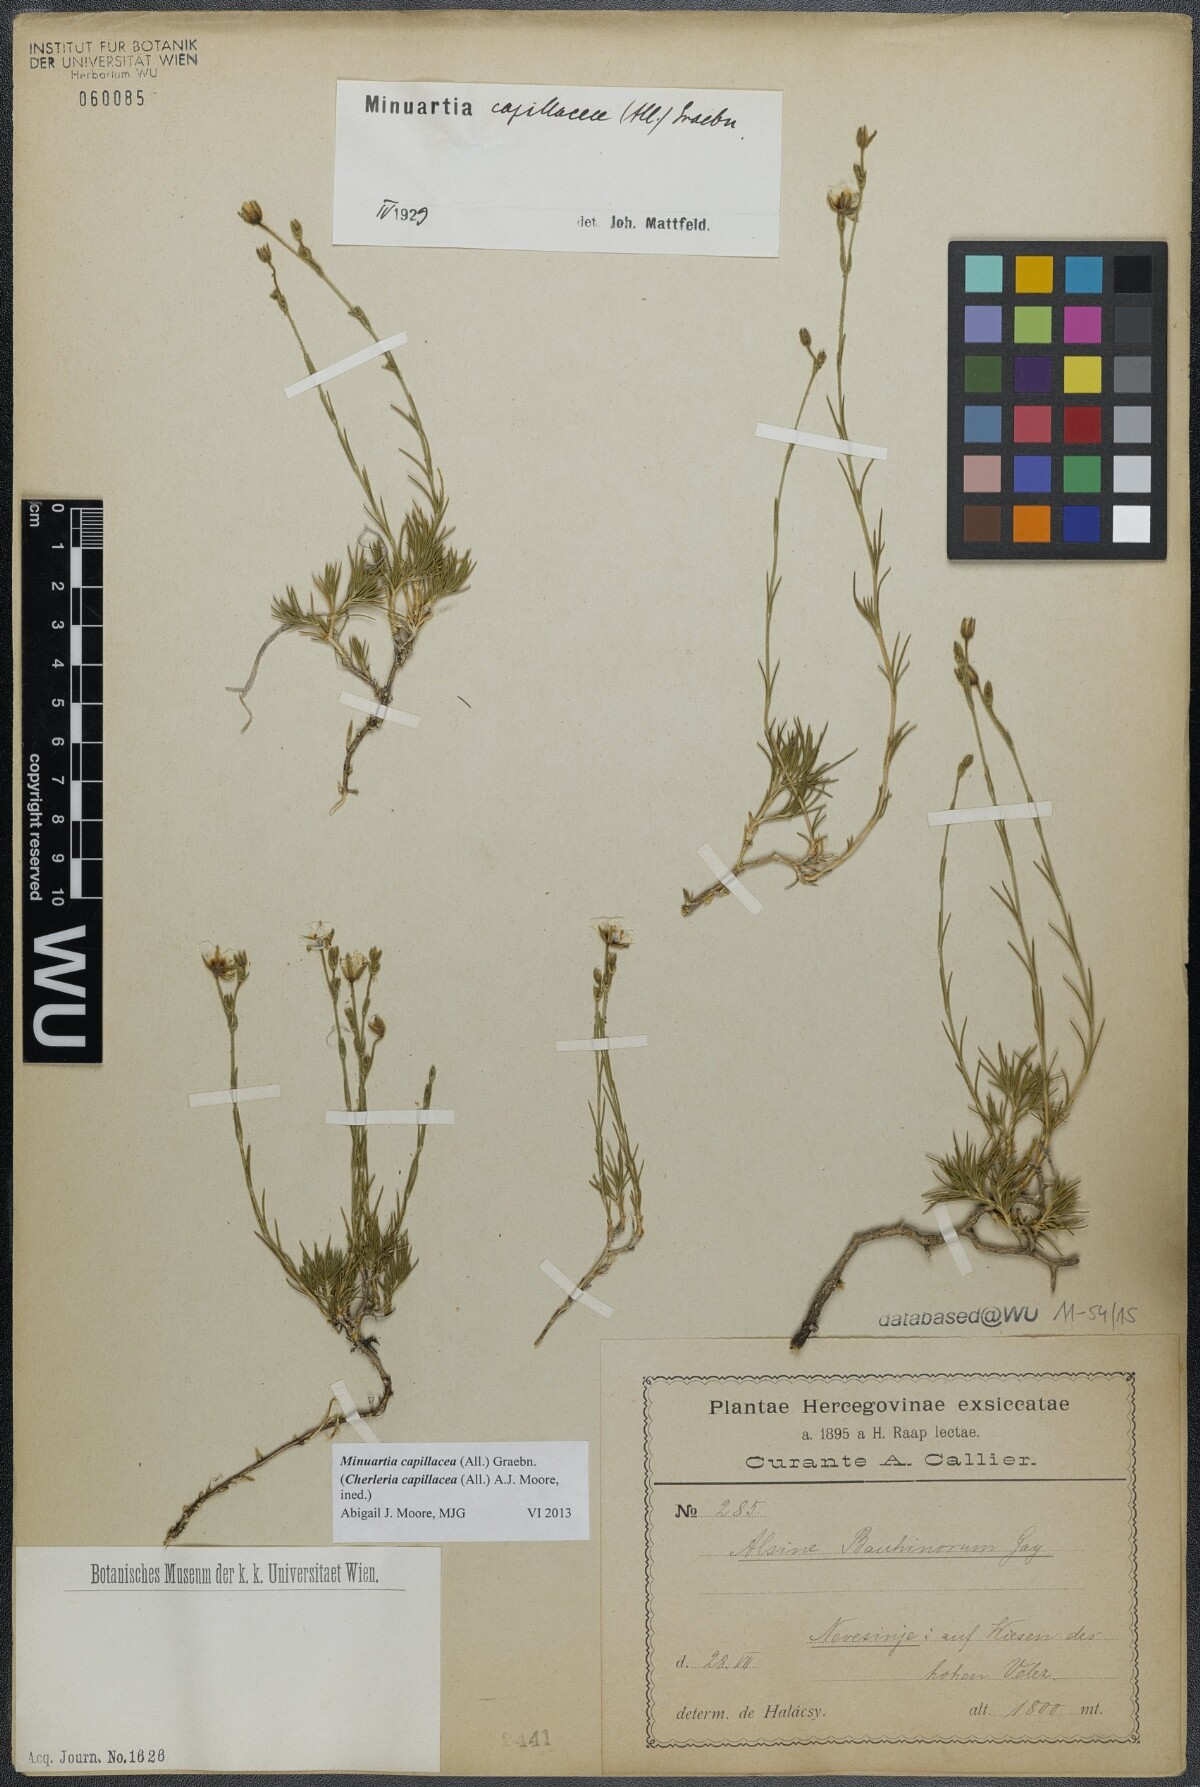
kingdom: Plantae
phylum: Tracheophyta
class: Magnoliopsida
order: Caryophyllales
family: Caryophyllaceae
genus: Cherleria
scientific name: Cherleria capillacea
